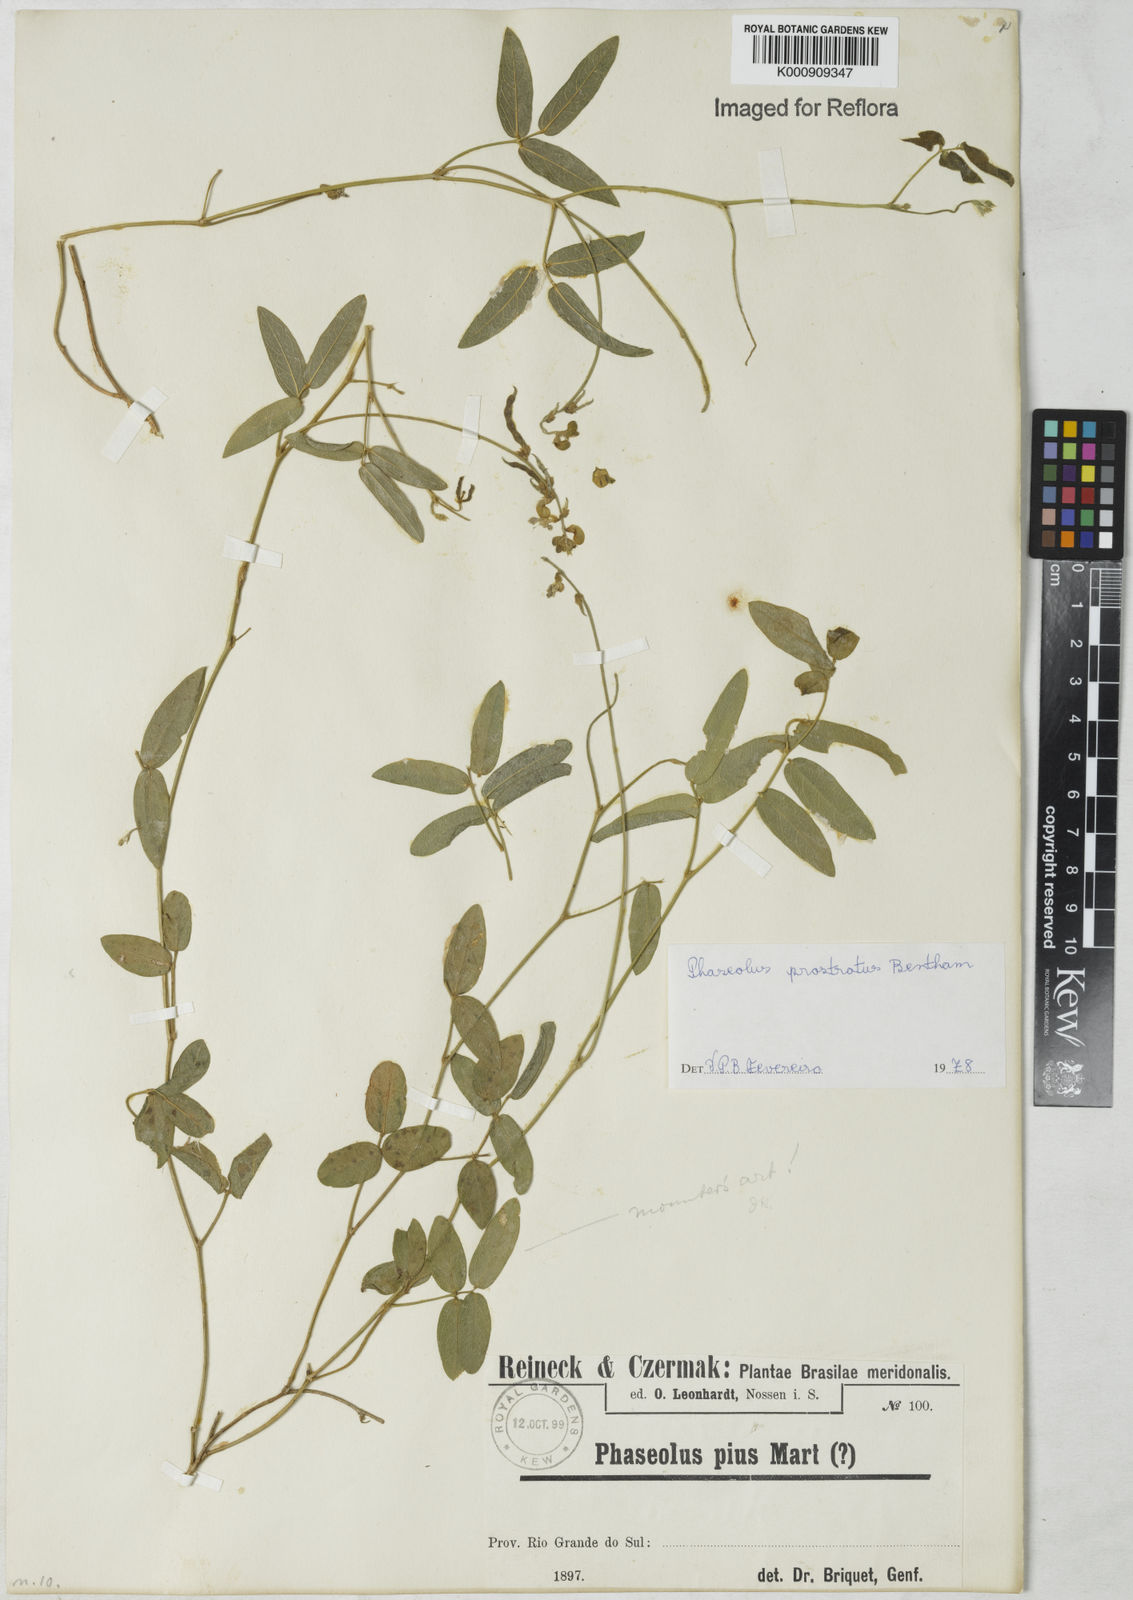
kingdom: Plantae
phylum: Tracheophyta
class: Magnoliopsida
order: Fabales
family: Fabaceae
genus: Macroptilium
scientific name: Macroptilium prostratum
